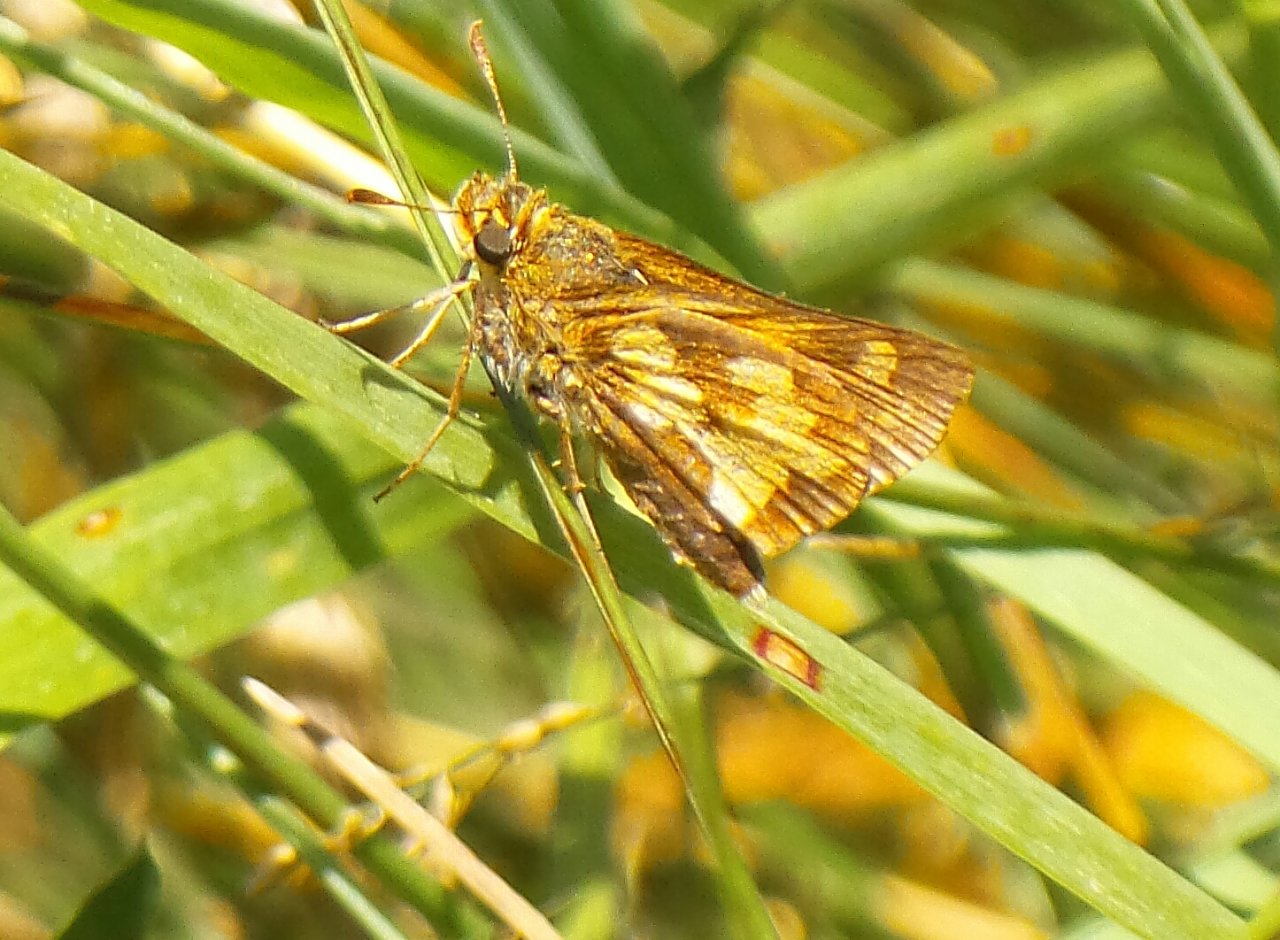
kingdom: Animalia
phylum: Arthropoda
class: Insecta
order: Lepidoptera
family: Hesperiidae
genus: Polites
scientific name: Polites coras
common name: Peck's Skipper
